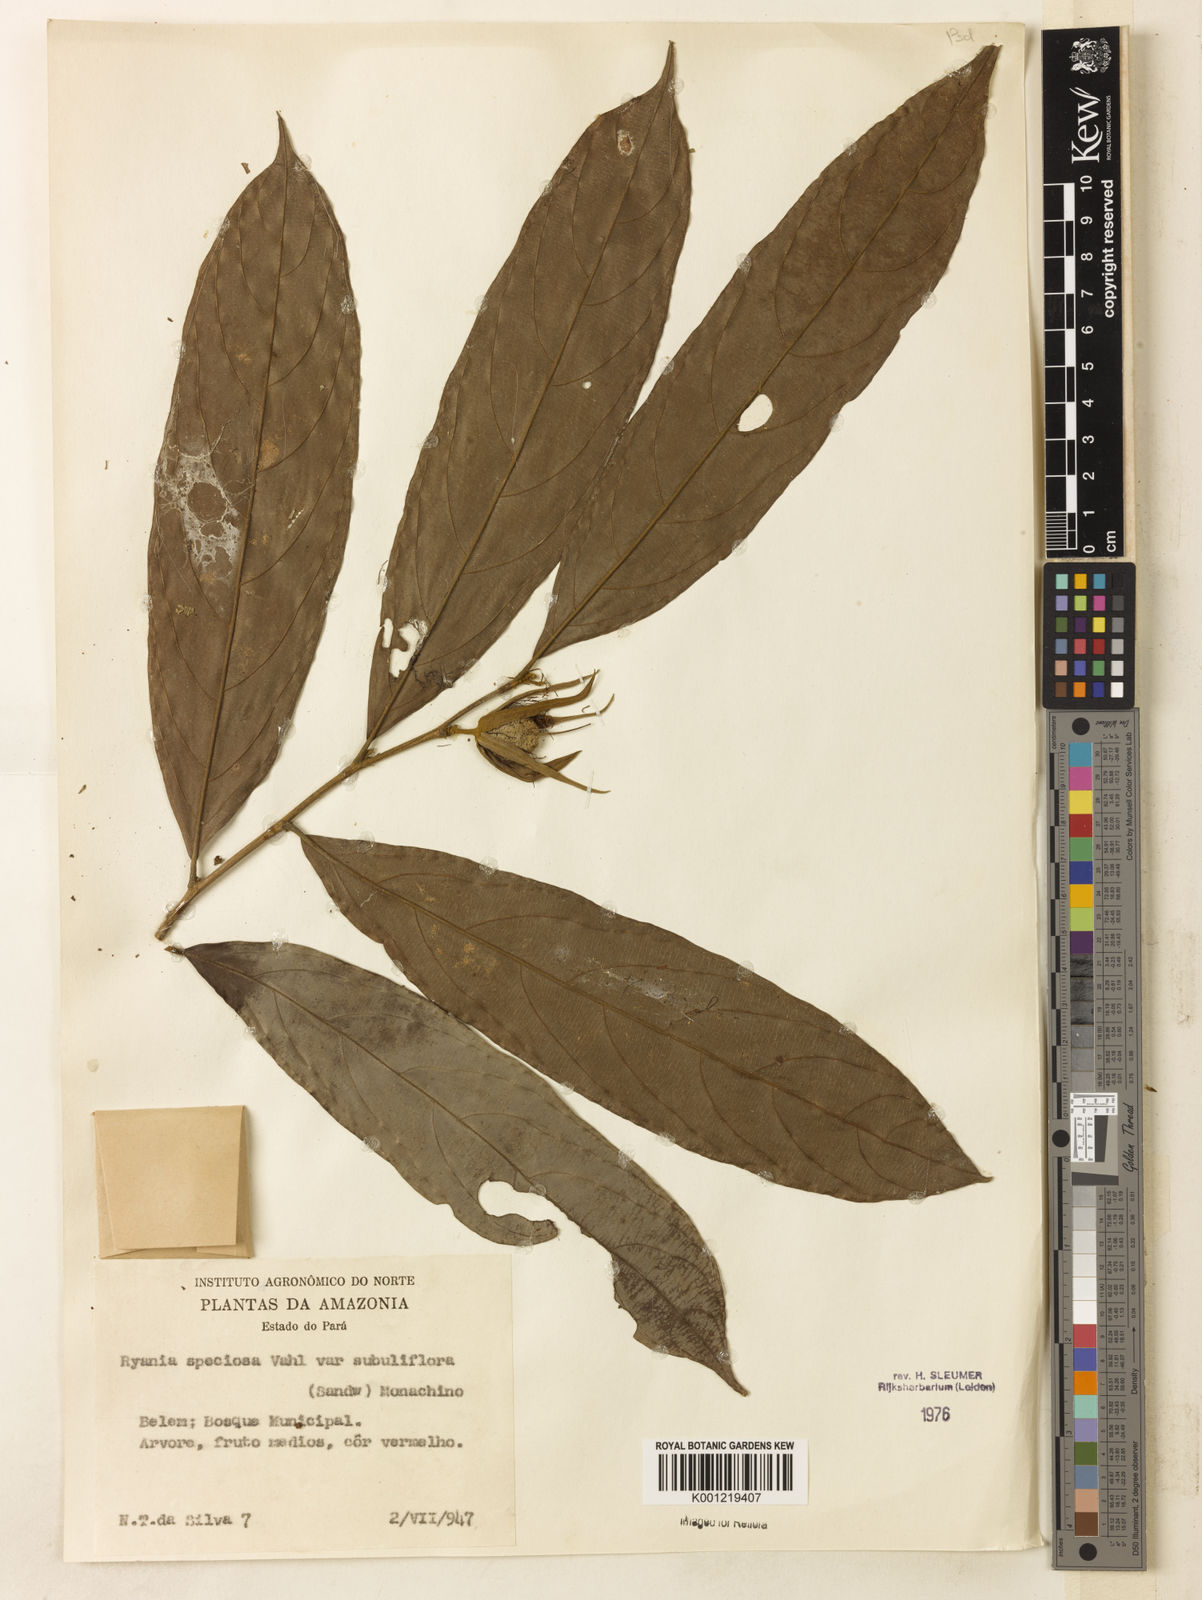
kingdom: Plantae
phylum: Tracheophyta
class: Magnoliopsida
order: Malpighiales
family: Salicaceae
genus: Ryania
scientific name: Ryania speciosa
